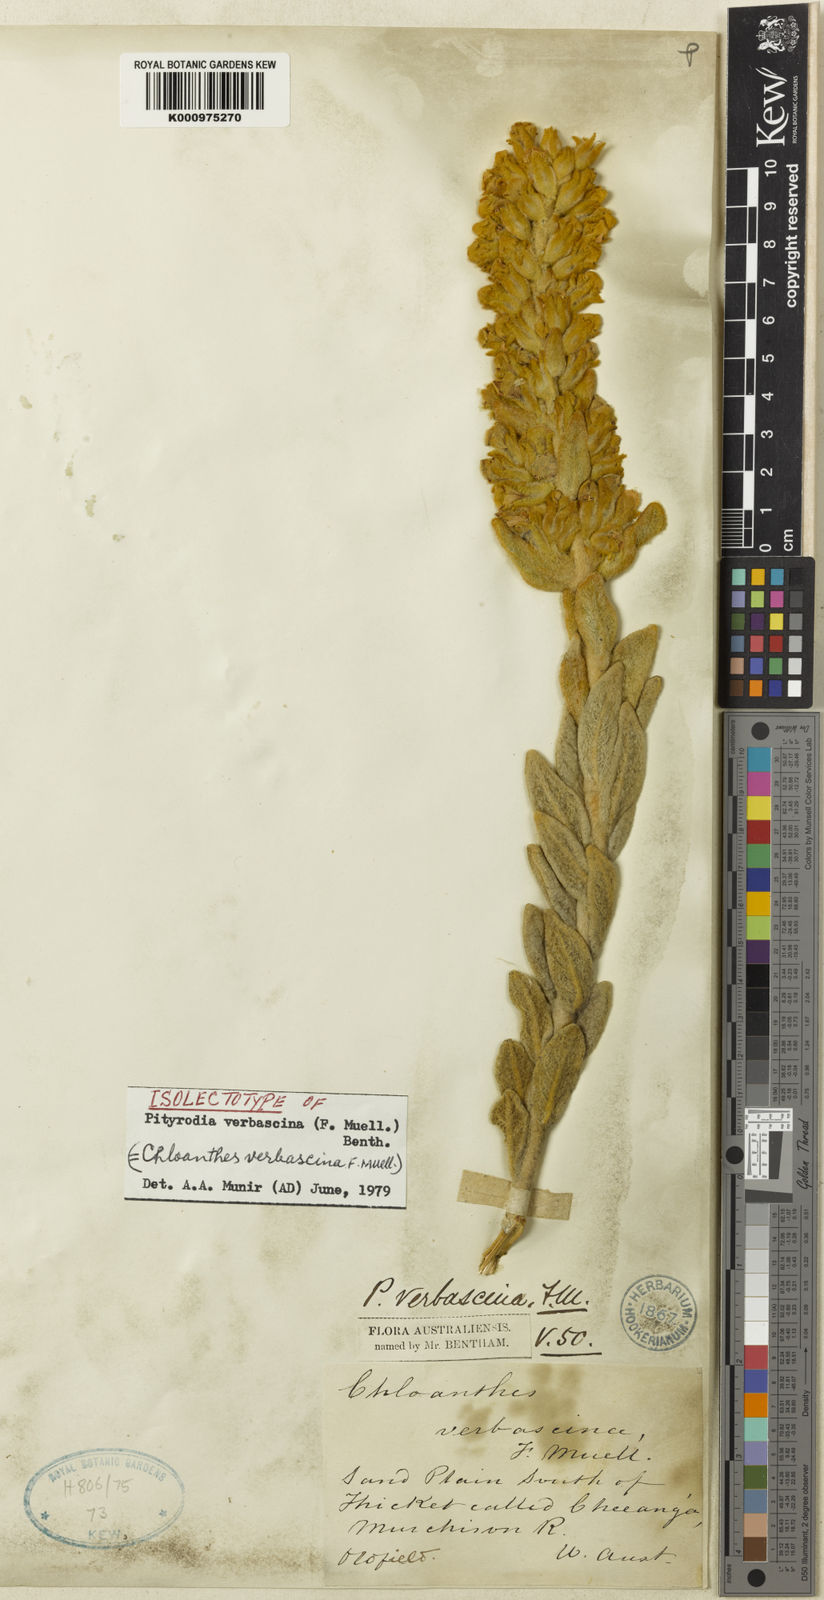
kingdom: Plantae
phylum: Tracheophyta
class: Magnoliopsida
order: Lamiales
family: Lamiaceae
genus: Quoya
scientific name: Quoya verbascina
